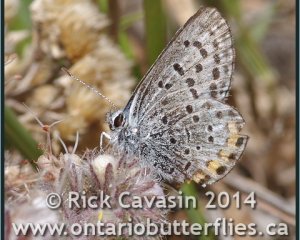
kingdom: Animalia
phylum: Arthropoda
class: Insecta
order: Lepidoptera
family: Lycaenidae
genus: Euphilotes
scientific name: Euphilotes enoptes
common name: Dotted Blue
